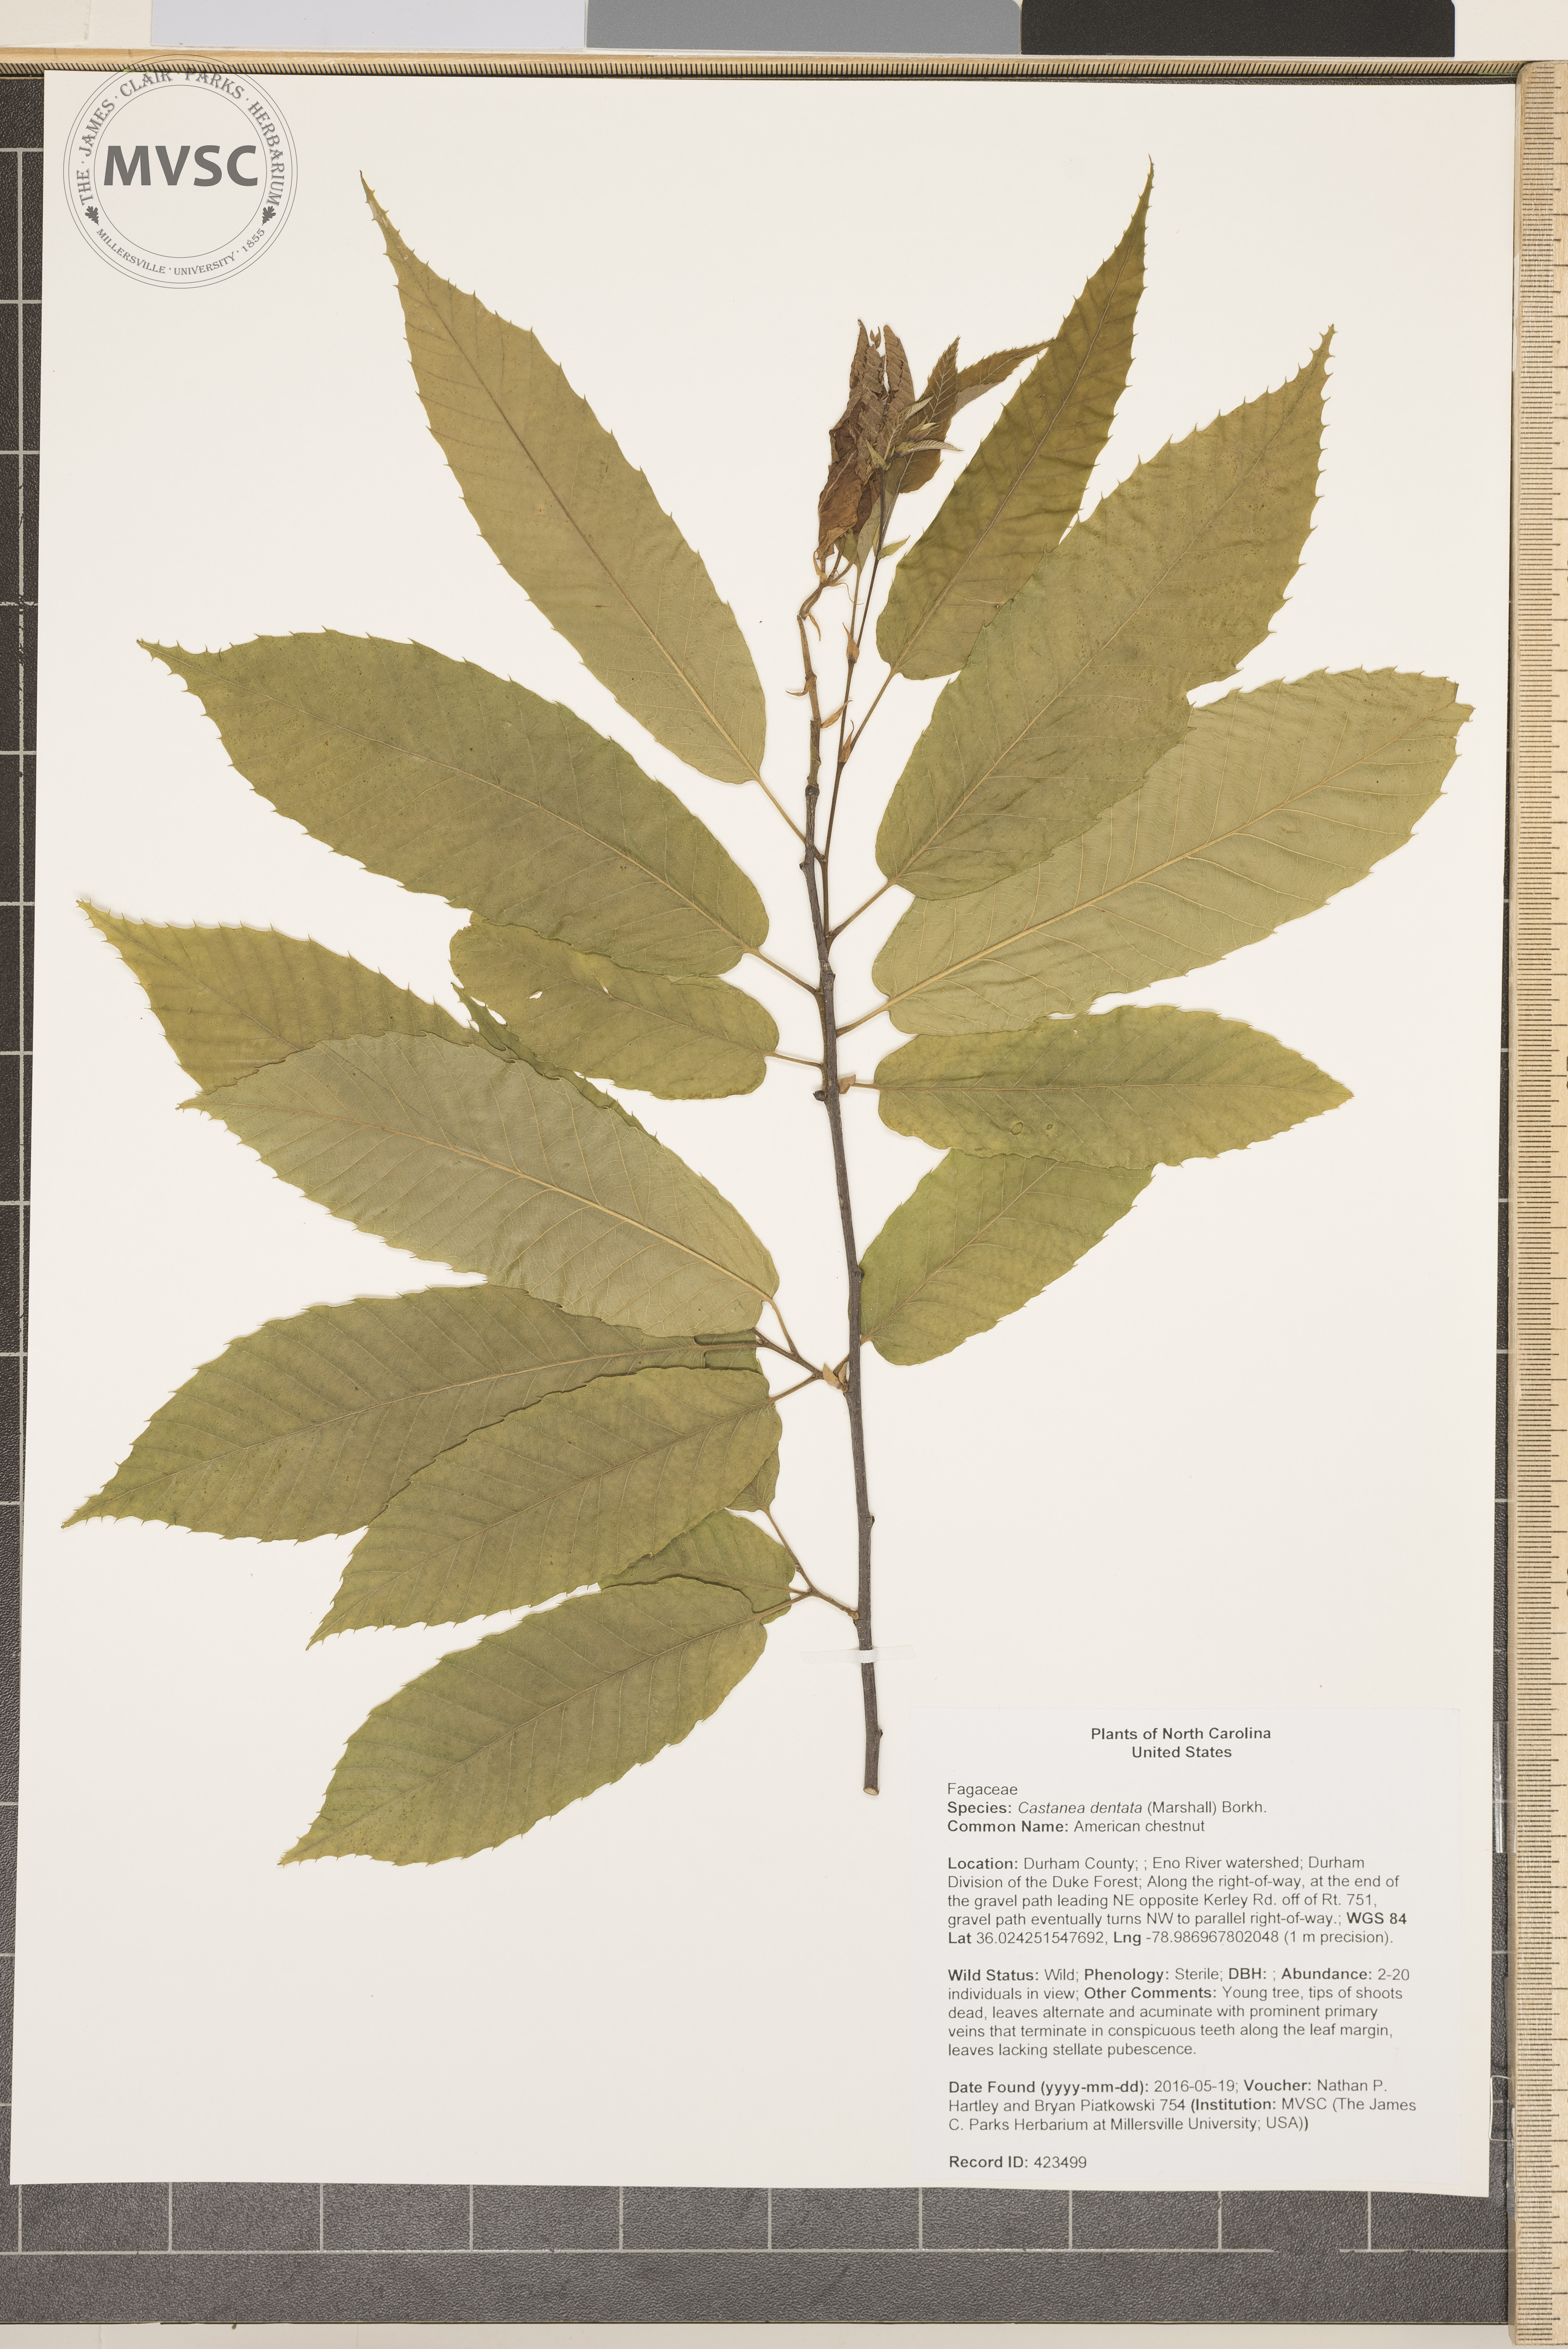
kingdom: Plantae
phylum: Tracheophyta
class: Magnoliopsida
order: Fagales
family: Fagaceae
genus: Castanea
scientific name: Castanea dentata
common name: American chestnut
